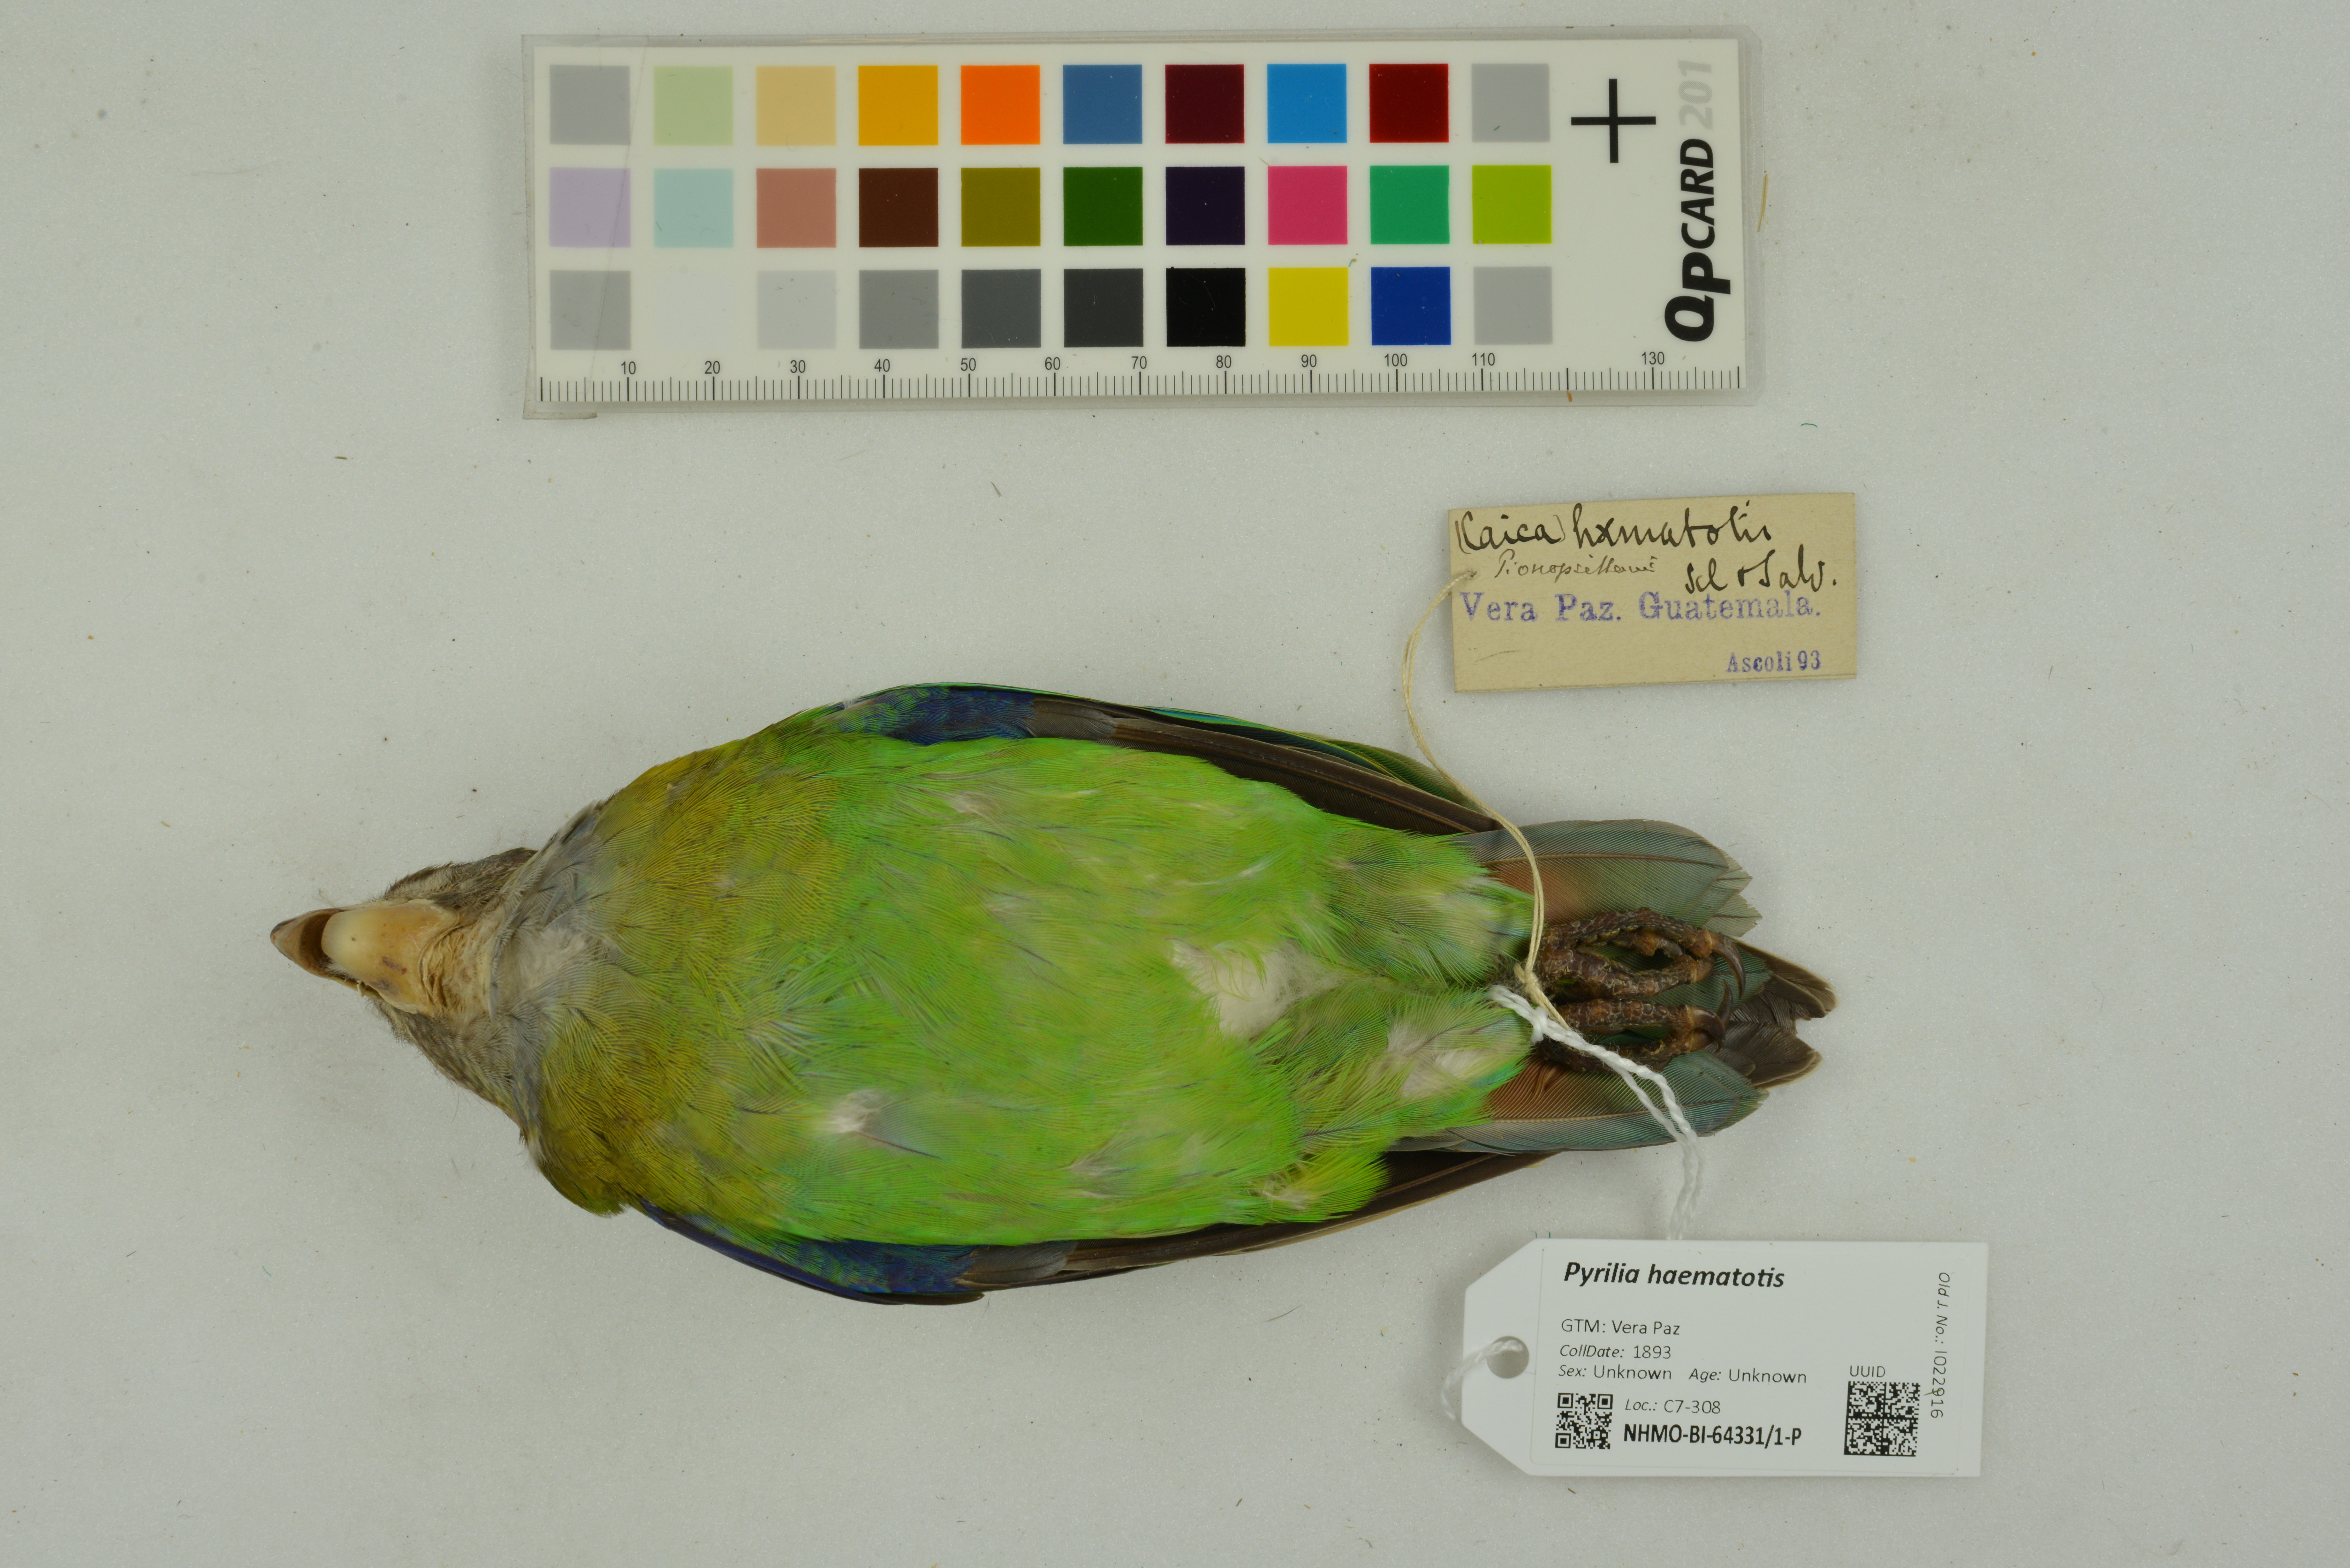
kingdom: Animalia
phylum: Chordata
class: Aves
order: Psittaciformes
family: Psittacidae
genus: Pionopsitta
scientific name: Pionopsitta haematotis
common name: Brown-hooded parrot
